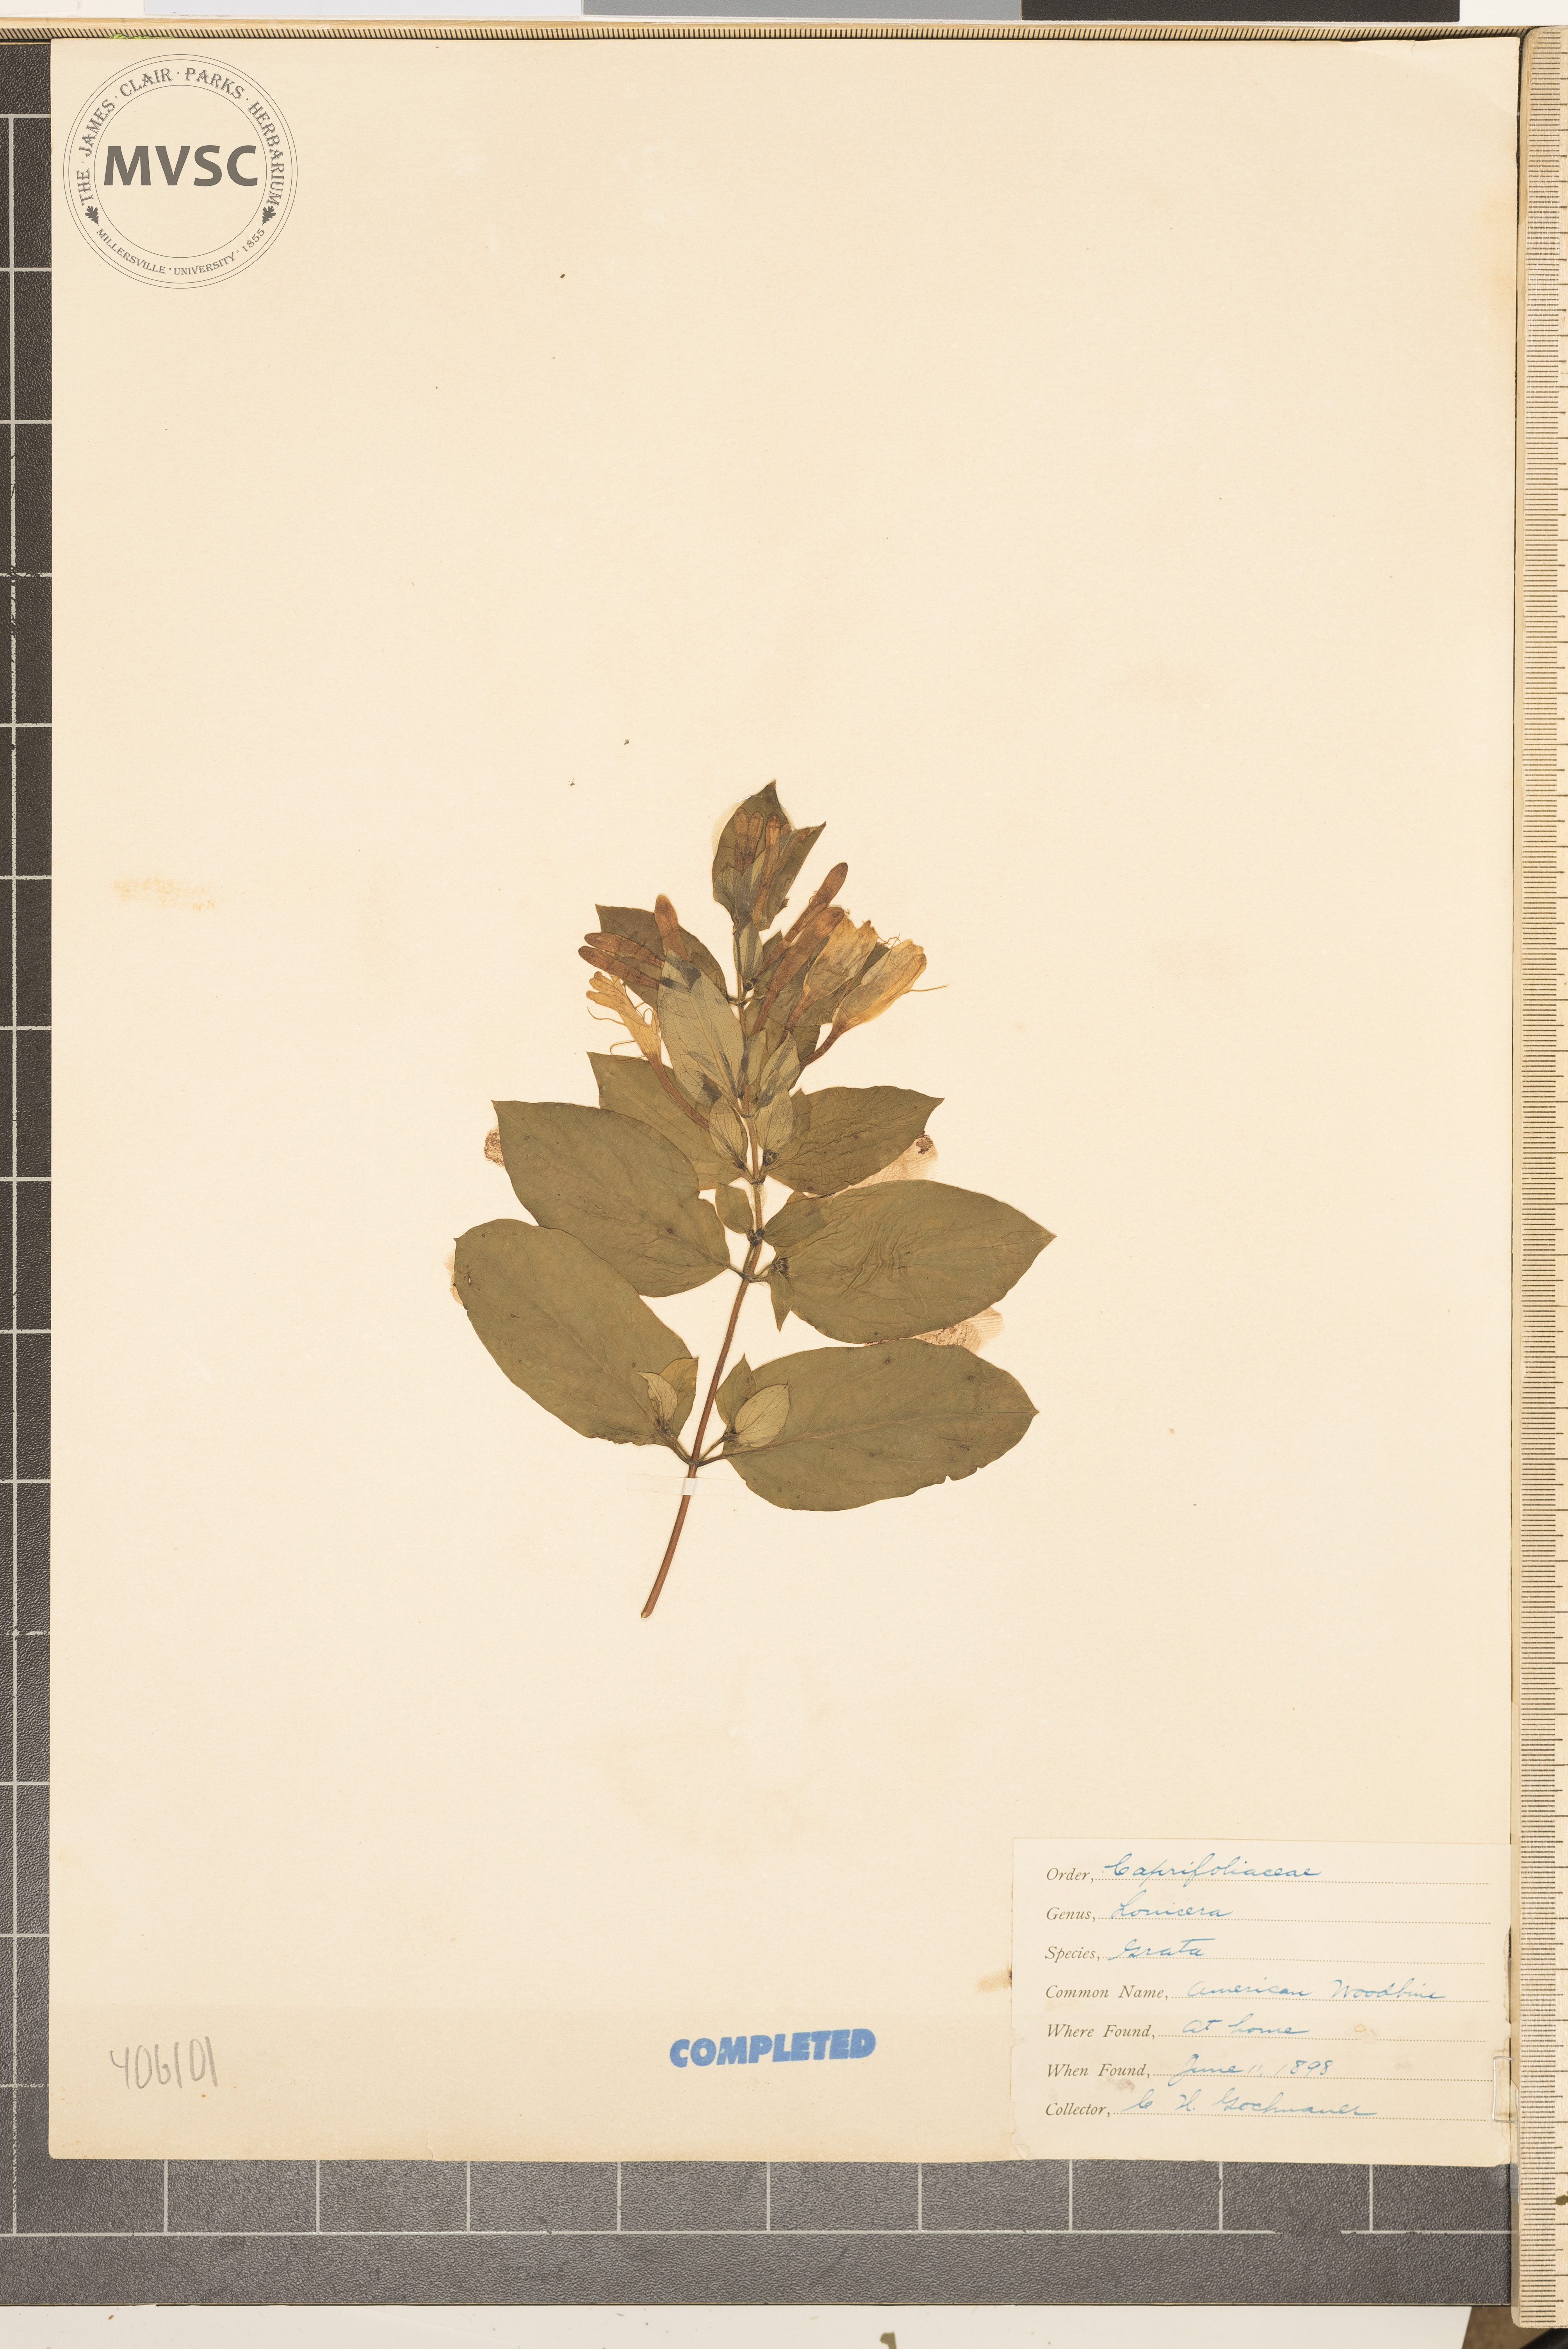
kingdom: Plantae
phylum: Tracheophyta
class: Magnoliopsida
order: Dipsacales
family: Caprifoliaceae
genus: Lonicera
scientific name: Lonicera americana
